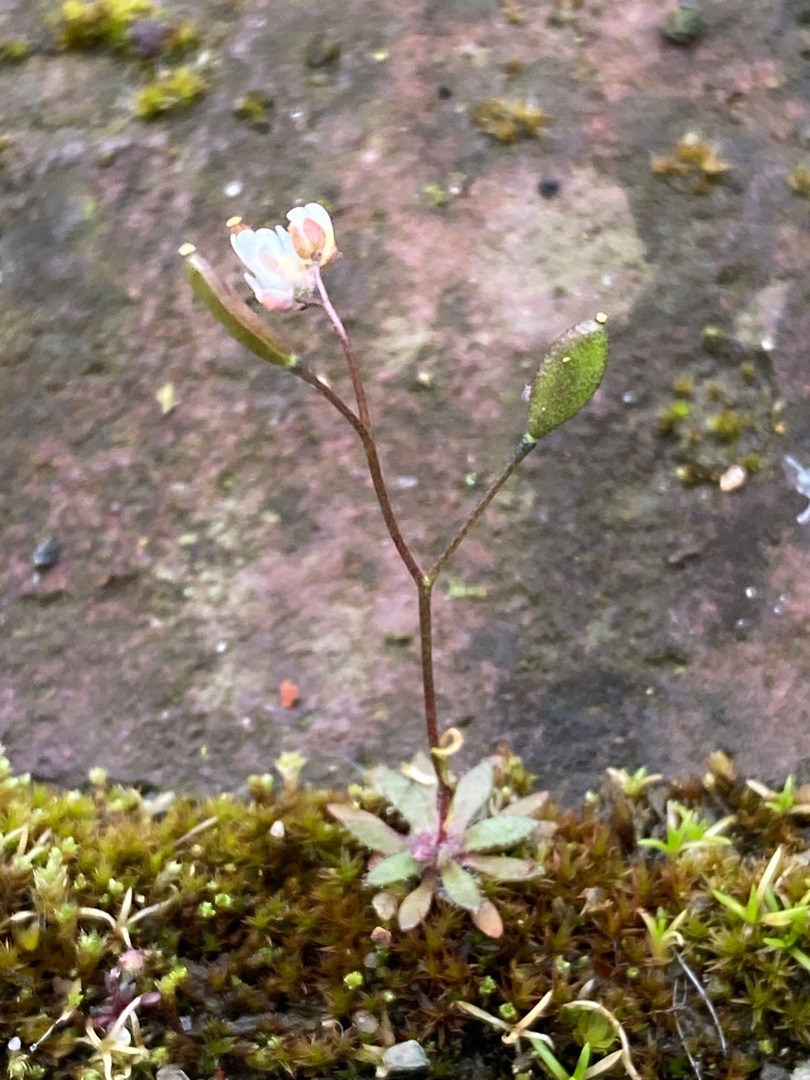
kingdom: Plantae
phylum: Tracheophyta
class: Magnoliopsida
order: Brassicales
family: Brassicaceae
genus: Draba
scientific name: Draba verna
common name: Vår-gæslingeblomst
